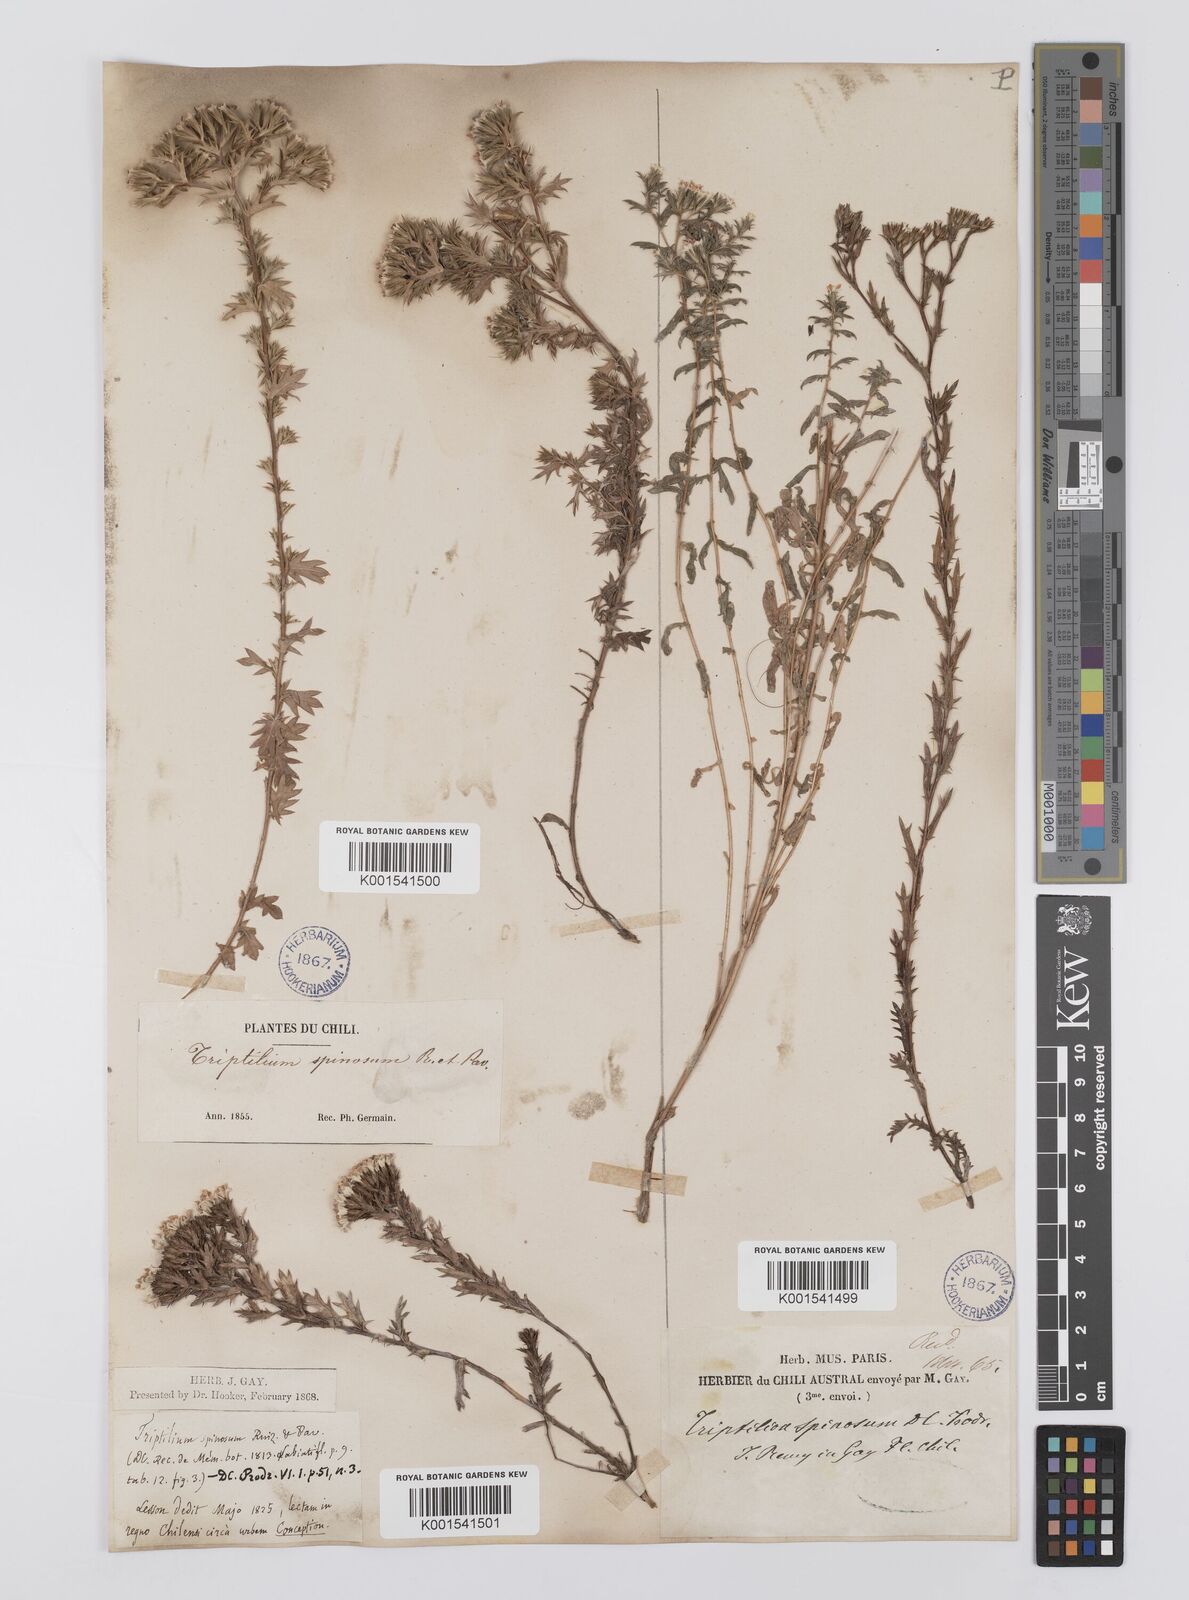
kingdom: Plantae
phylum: Tracheophyta
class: Magnoliopsida
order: Asterales
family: Asteraceae
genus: Triptilion
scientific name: Triptilion spinosum
